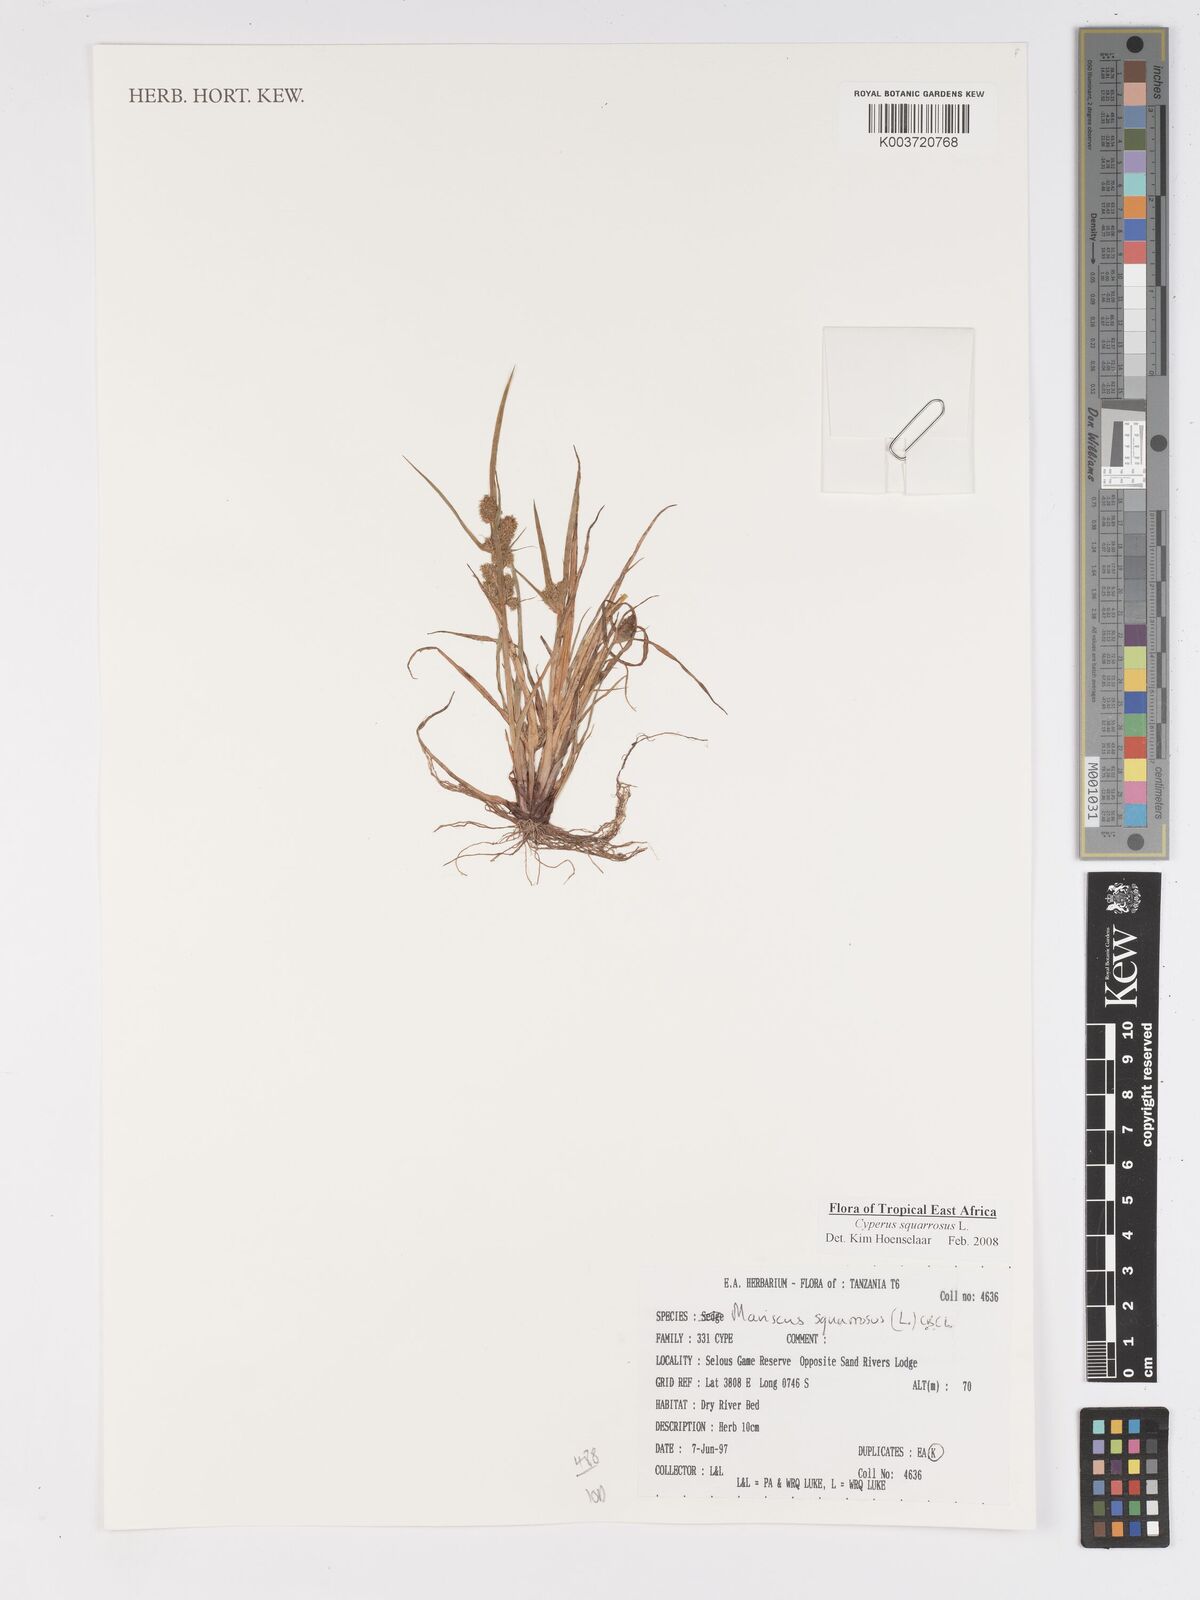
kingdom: Plantae
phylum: Tracheophyta
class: Liliopsida
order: Poales
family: Cyperaceae
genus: Cyperus
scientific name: Cyperus squarrosus
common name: Awned cyperus
